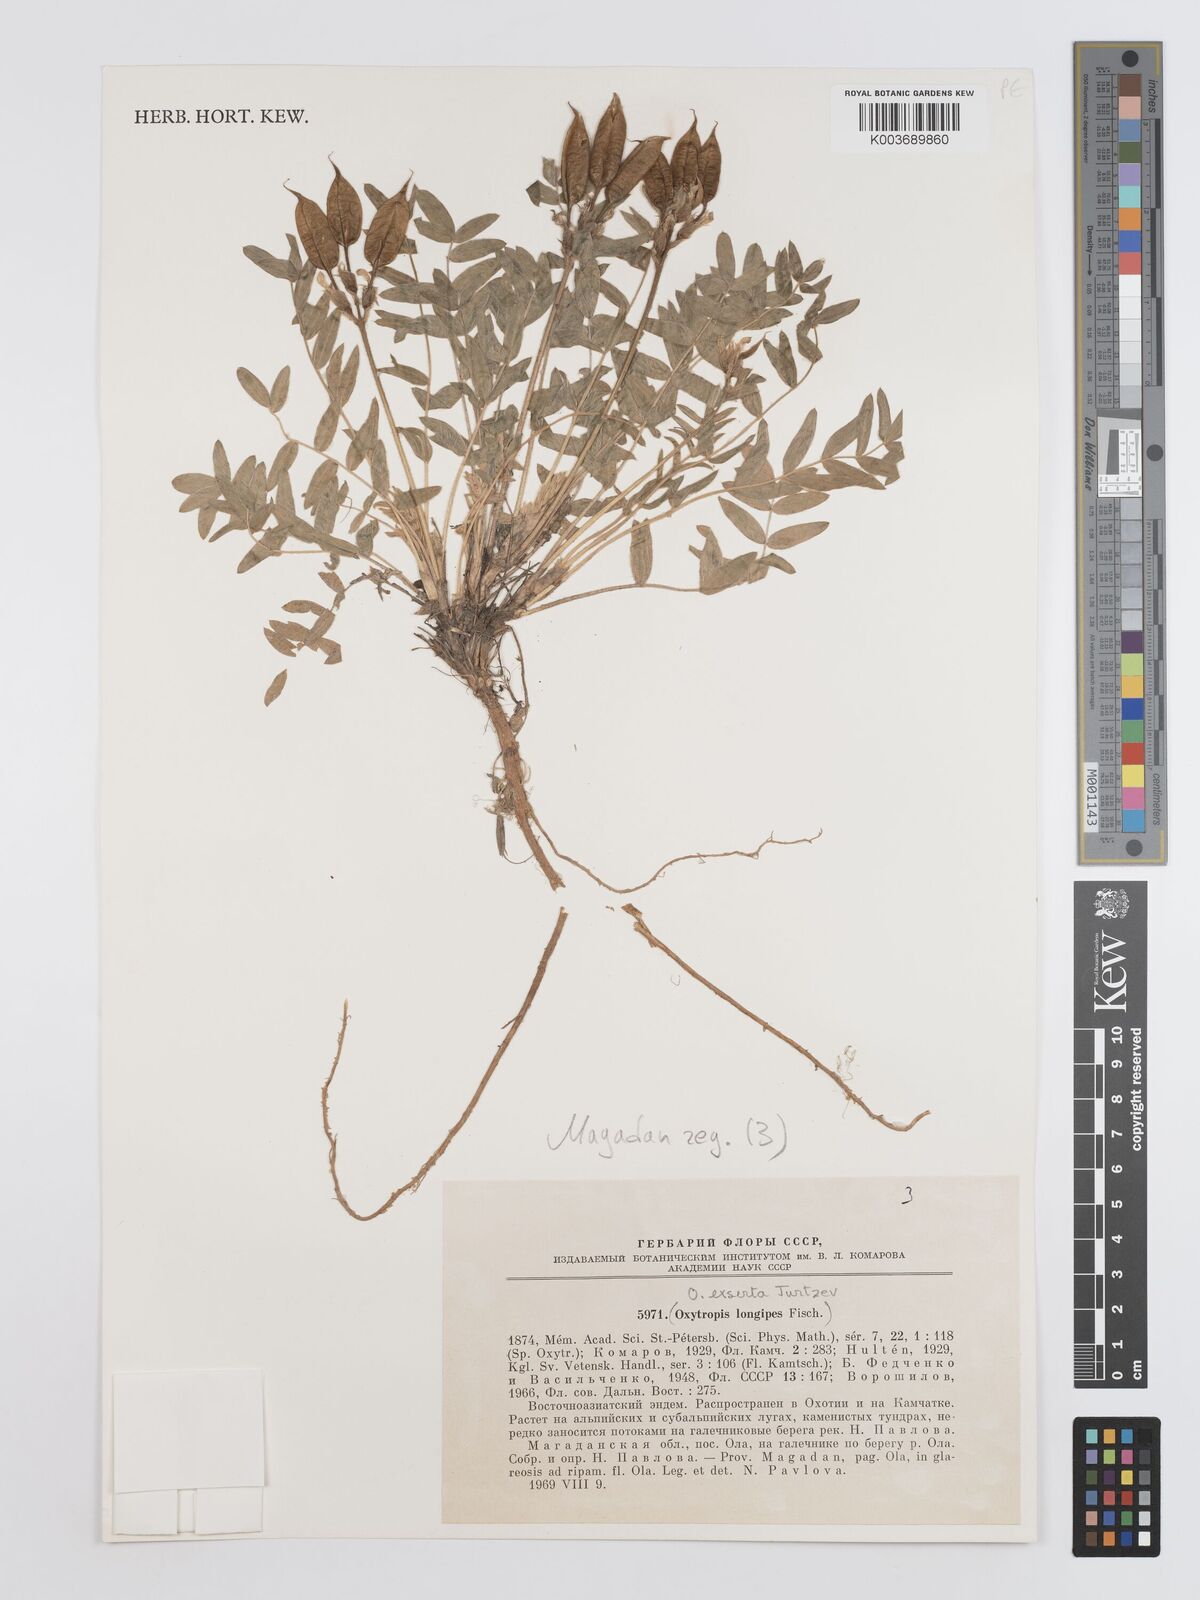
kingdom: Plantae
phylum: Tracheophyta
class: Magnoliopsida
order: Fabales
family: Fabaceae
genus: Oxytropis
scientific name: Oxytropis exserta
